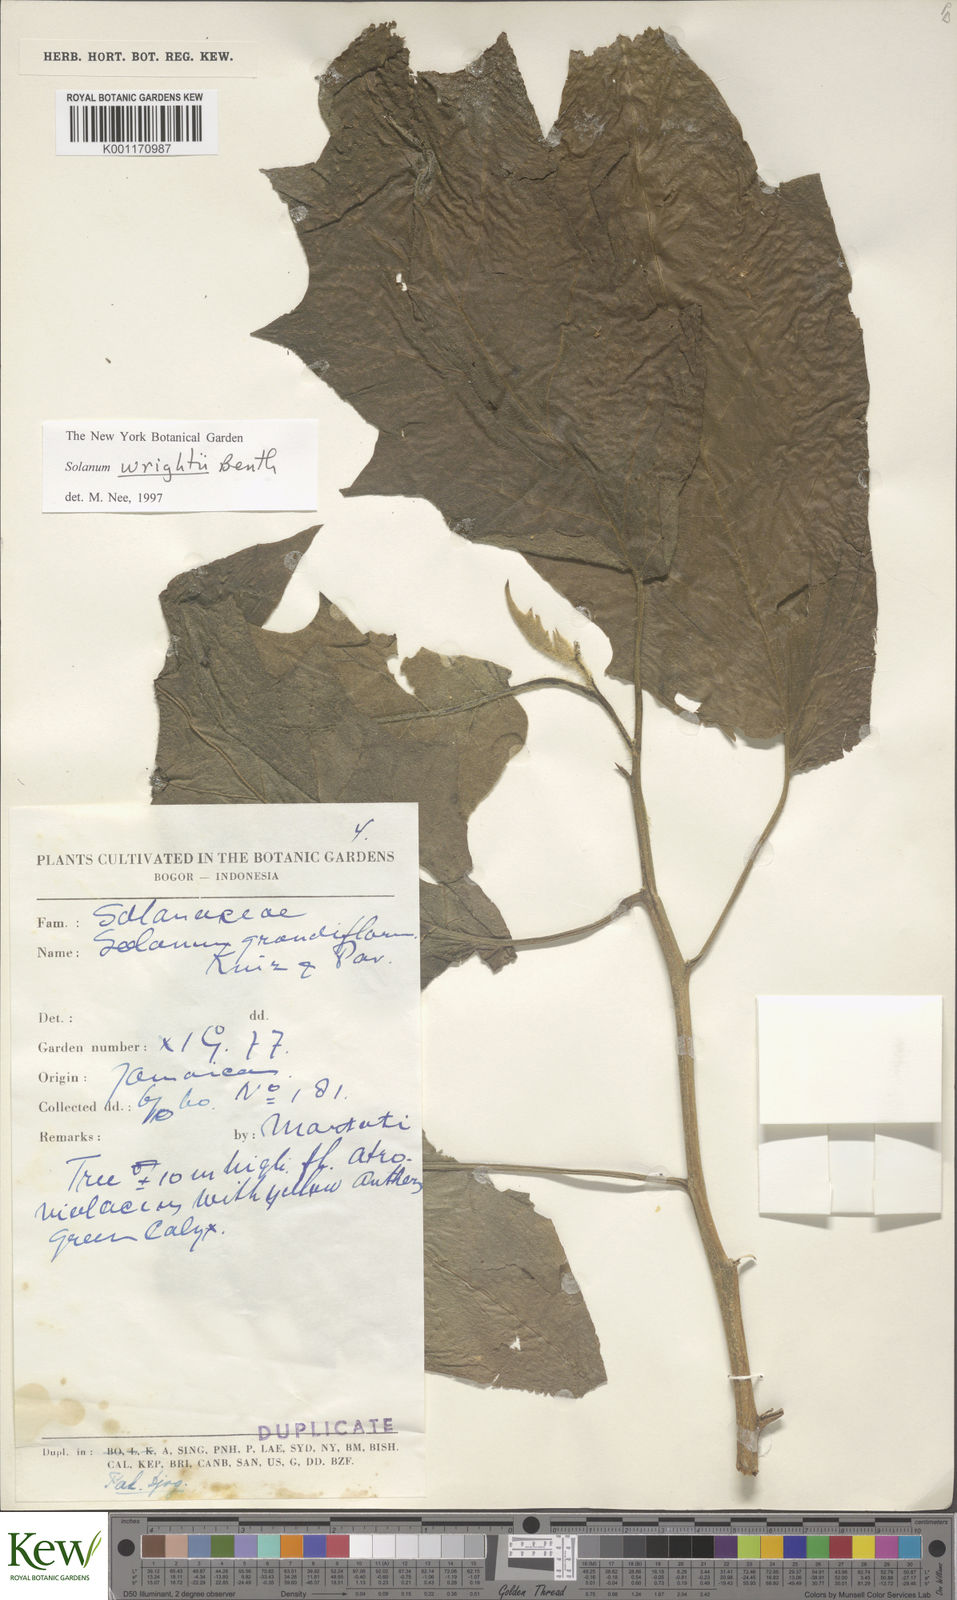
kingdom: Plantae
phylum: Tracheophyta
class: Magnoliopsida
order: Solanales
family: Solanaceae
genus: Solanum
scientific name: Solanum wrightii
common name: Brazilian potato-tree
